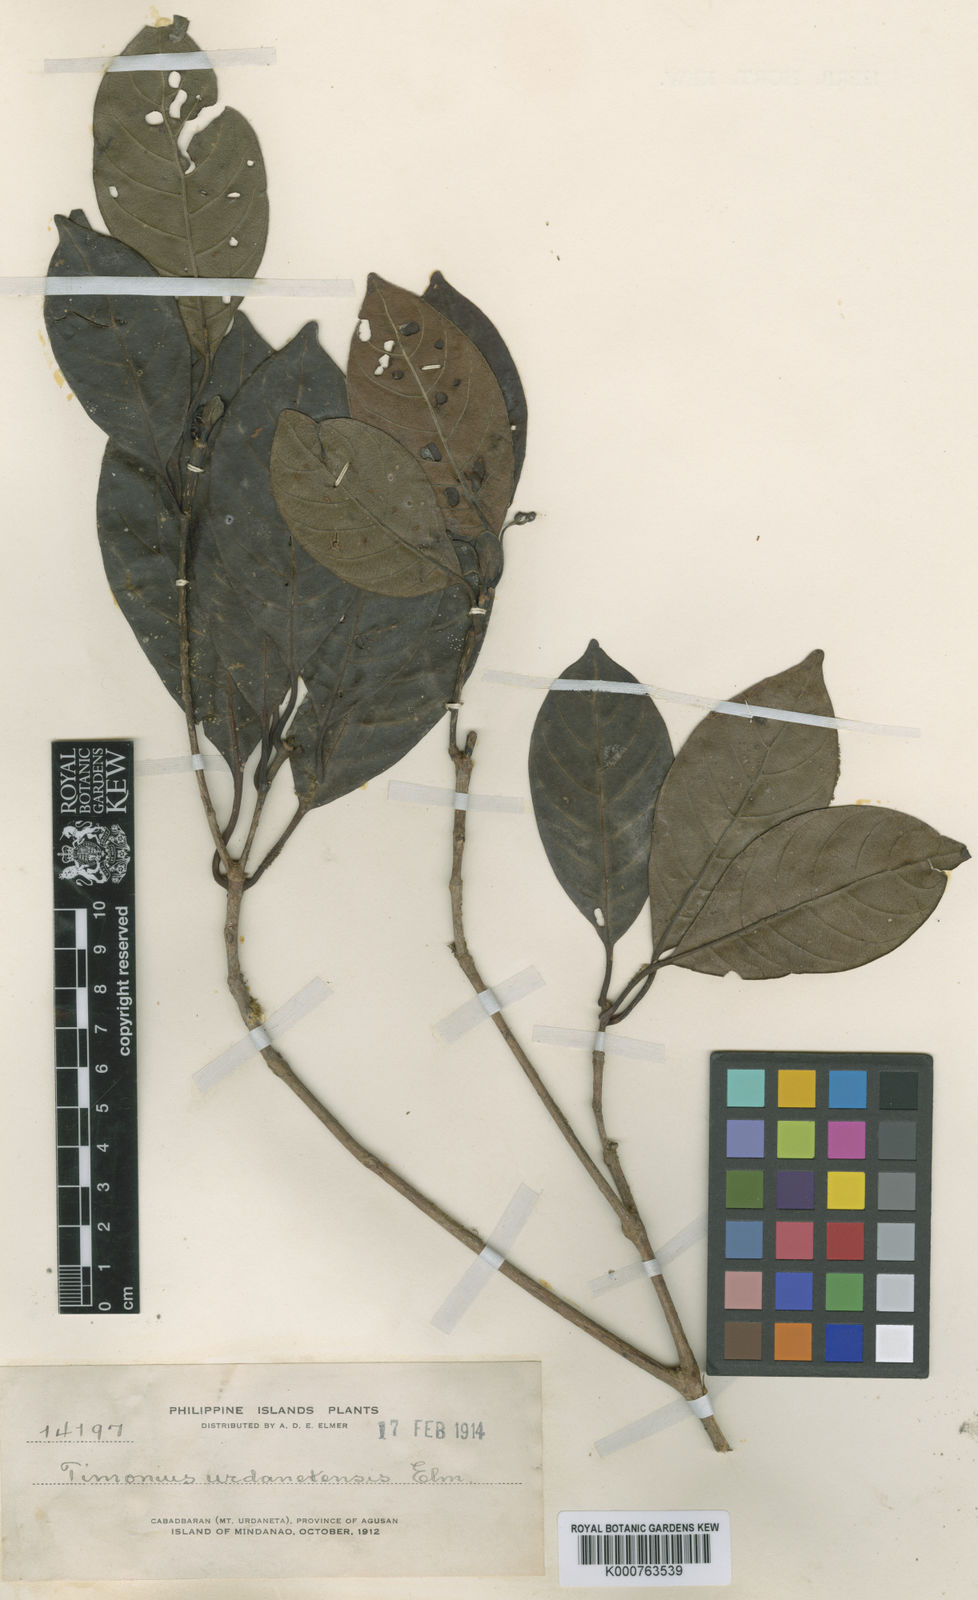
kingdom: Plantae
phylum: Tracheophyta
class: Magnoliopsida
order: Gentianales
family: Rubiaceae
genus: Timonius
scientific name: Timonius urdanetensis
